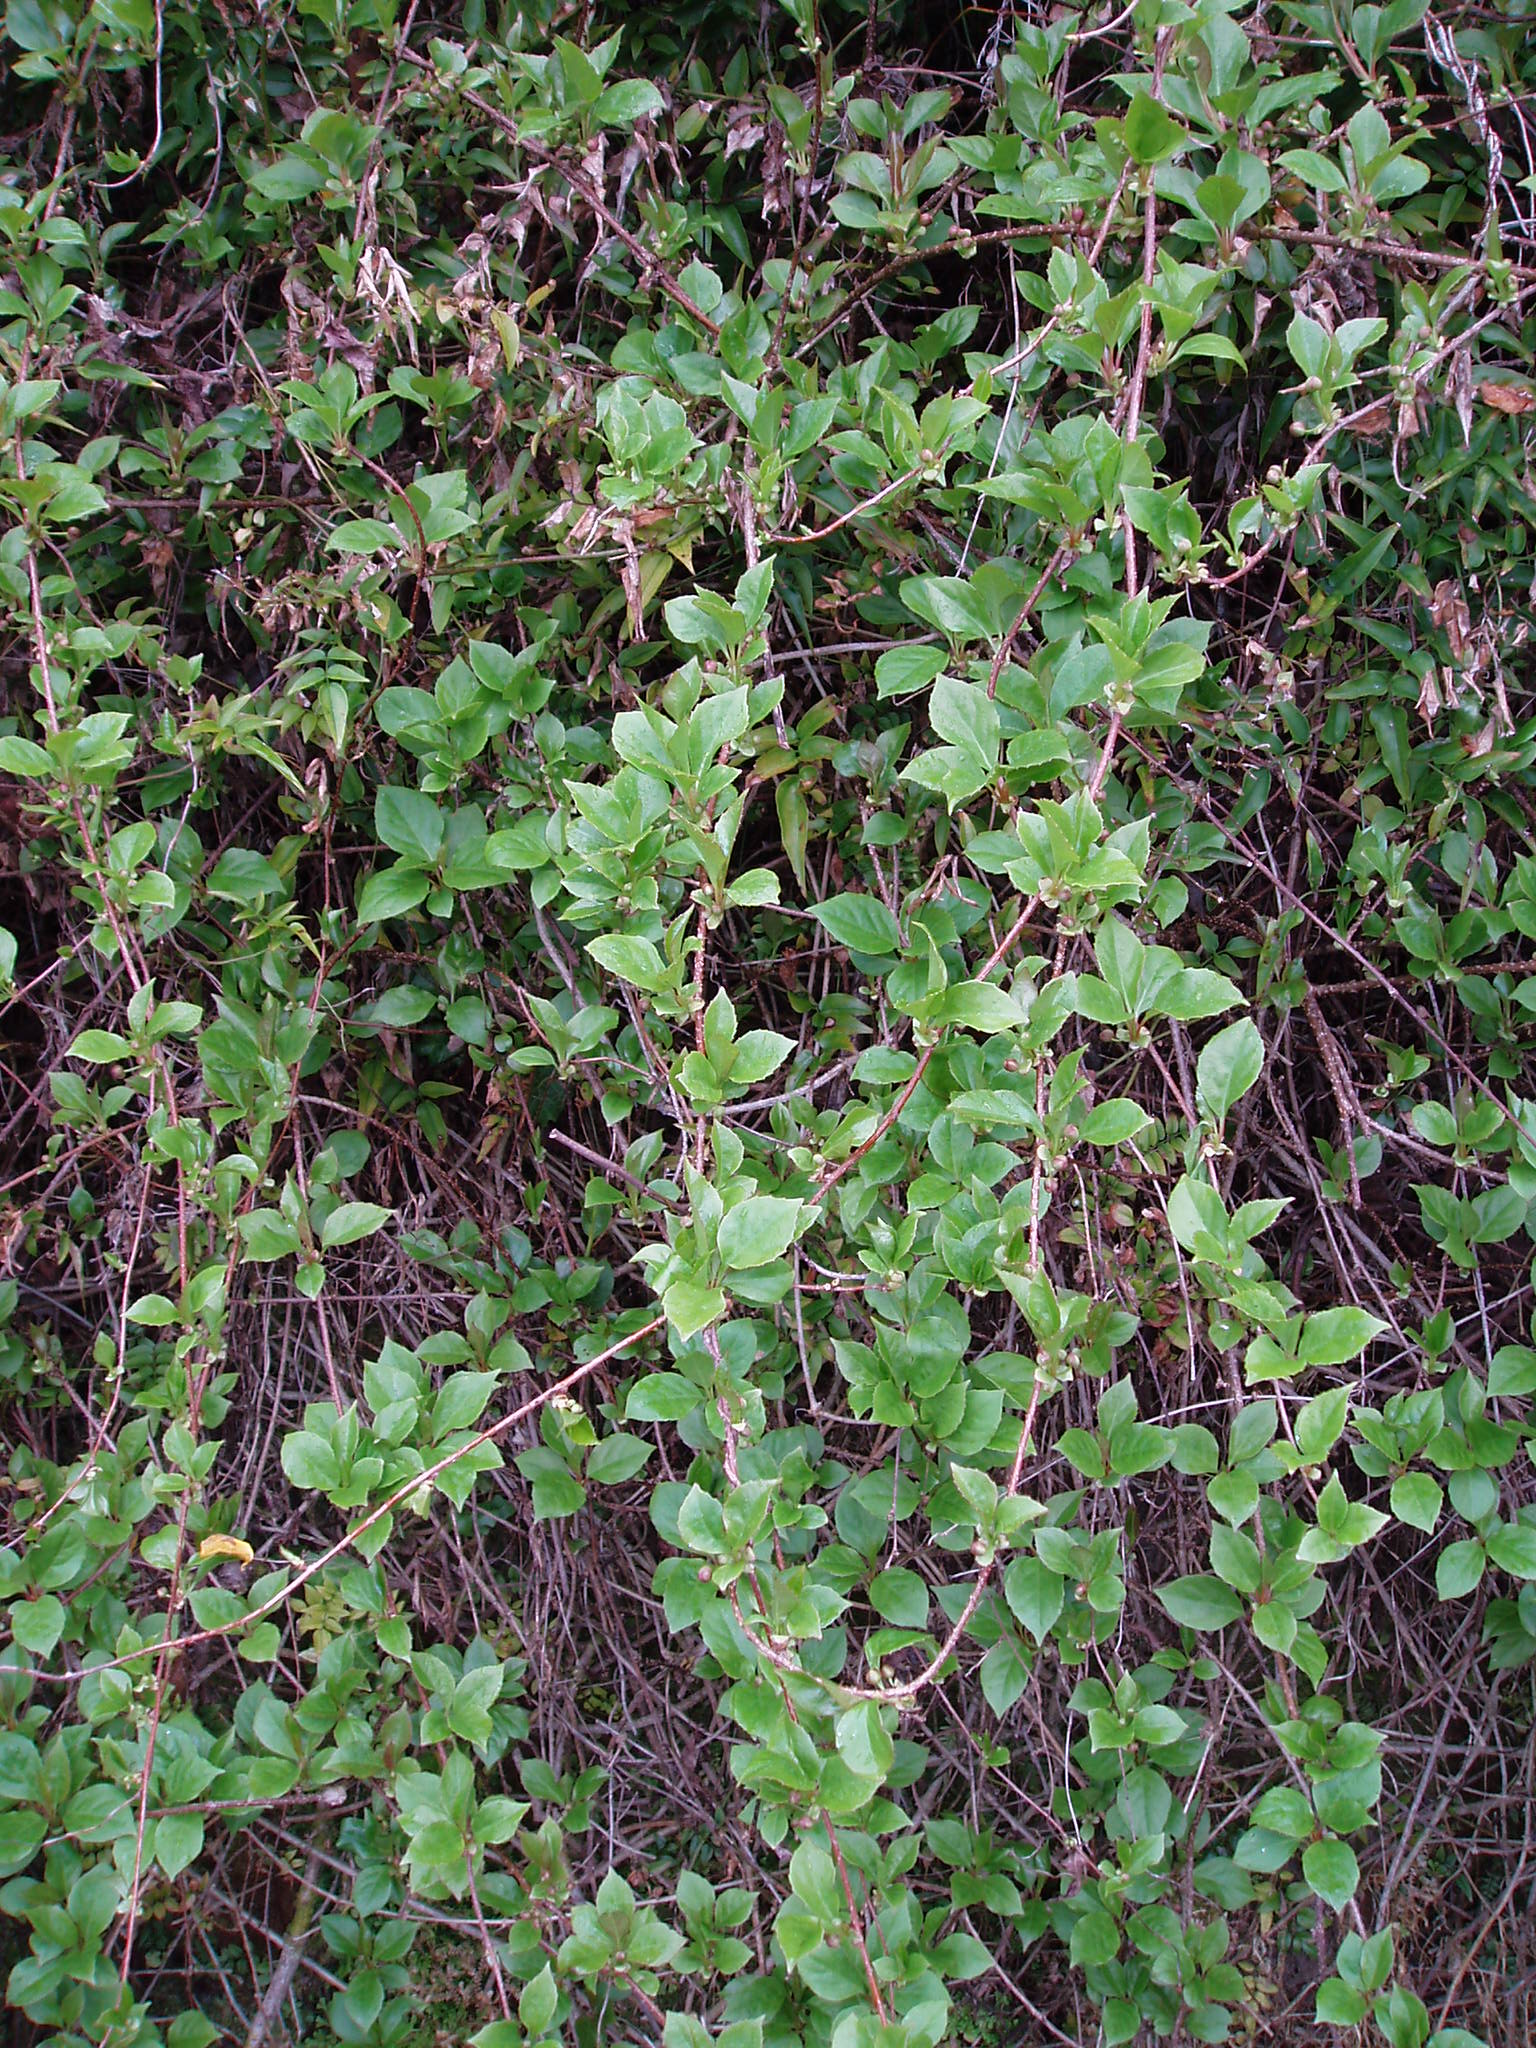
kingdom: Plantae
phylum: Tracheophyta
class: Magnoliopsida
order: Austrobaileyales
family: Schisandraceae
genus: Schisandra
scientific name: Schisandra sphenanthera
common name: Lemonwood
